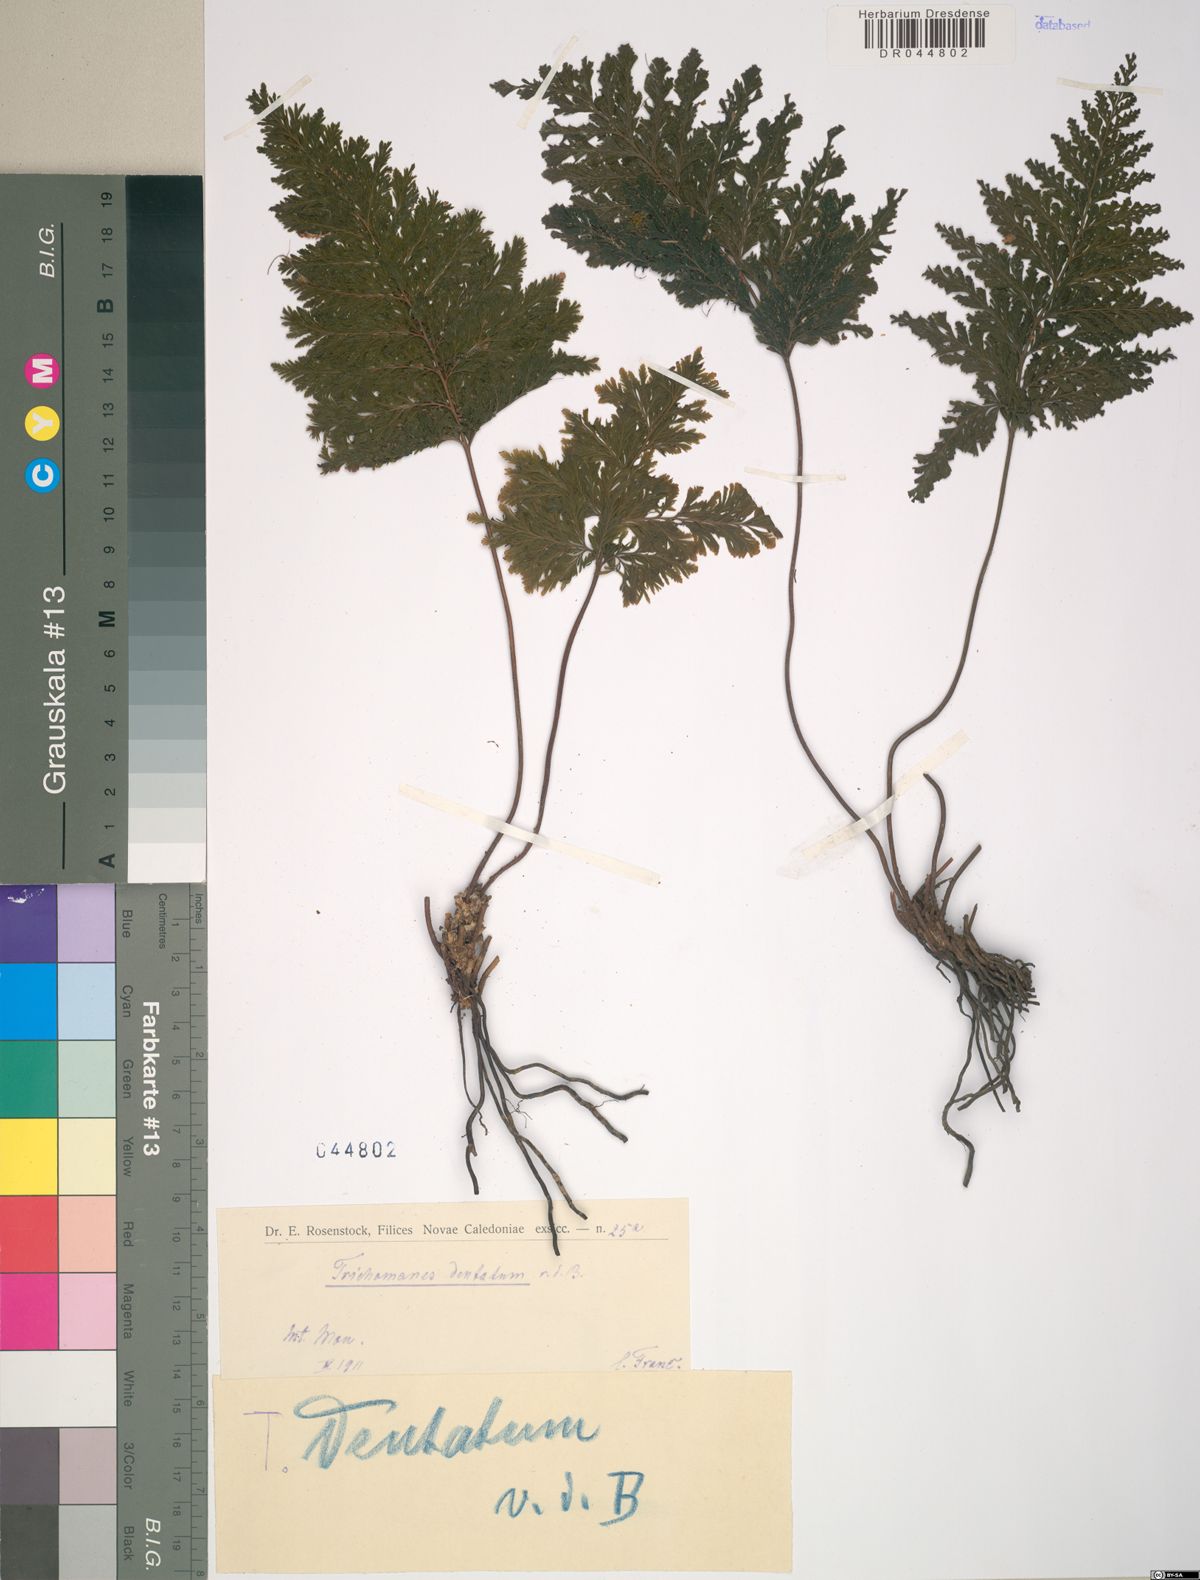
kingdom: Plantae
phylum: Tracheophyta
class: Polypodiopsida
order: Hymenophyllales
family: Hymenophyllaceae
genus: Abrodictyum
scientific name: Abrodictyum dentatum
